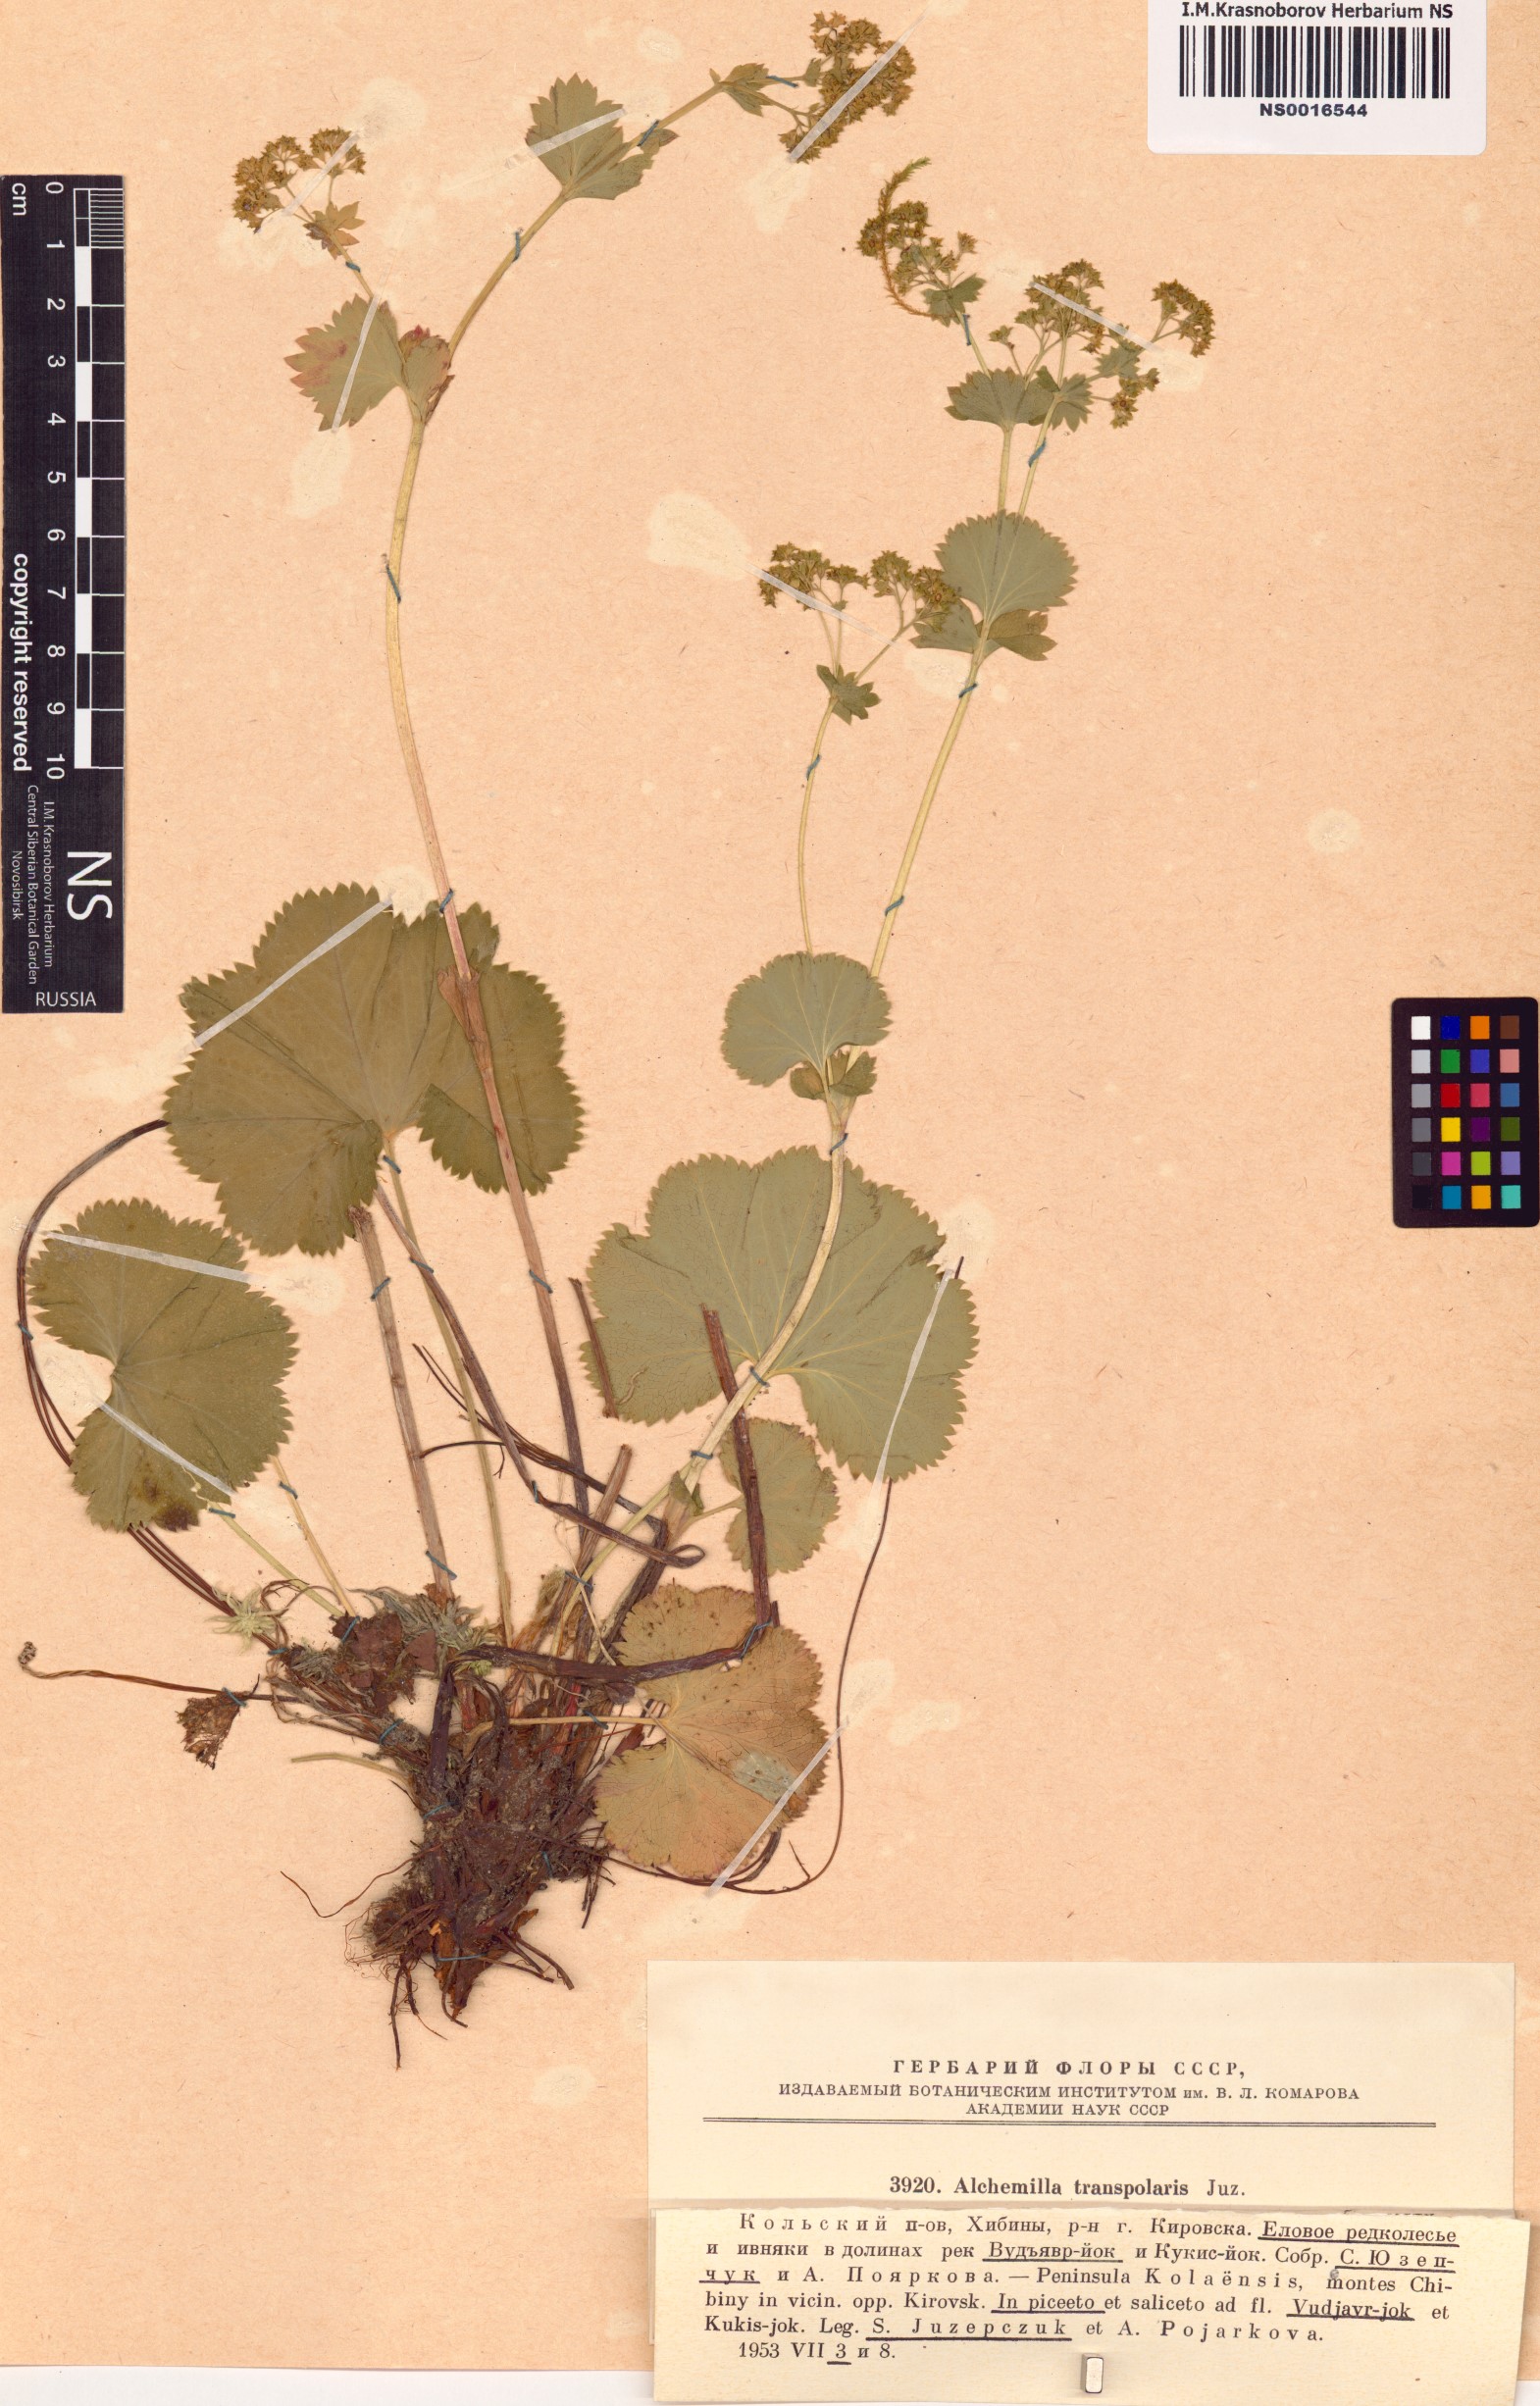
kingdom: Plantae
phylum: Tracheophyta
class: Magnoliopsida
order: Rosales
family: Rosaceae
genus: Alchemilla
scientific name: Alchemilla transpolaris
